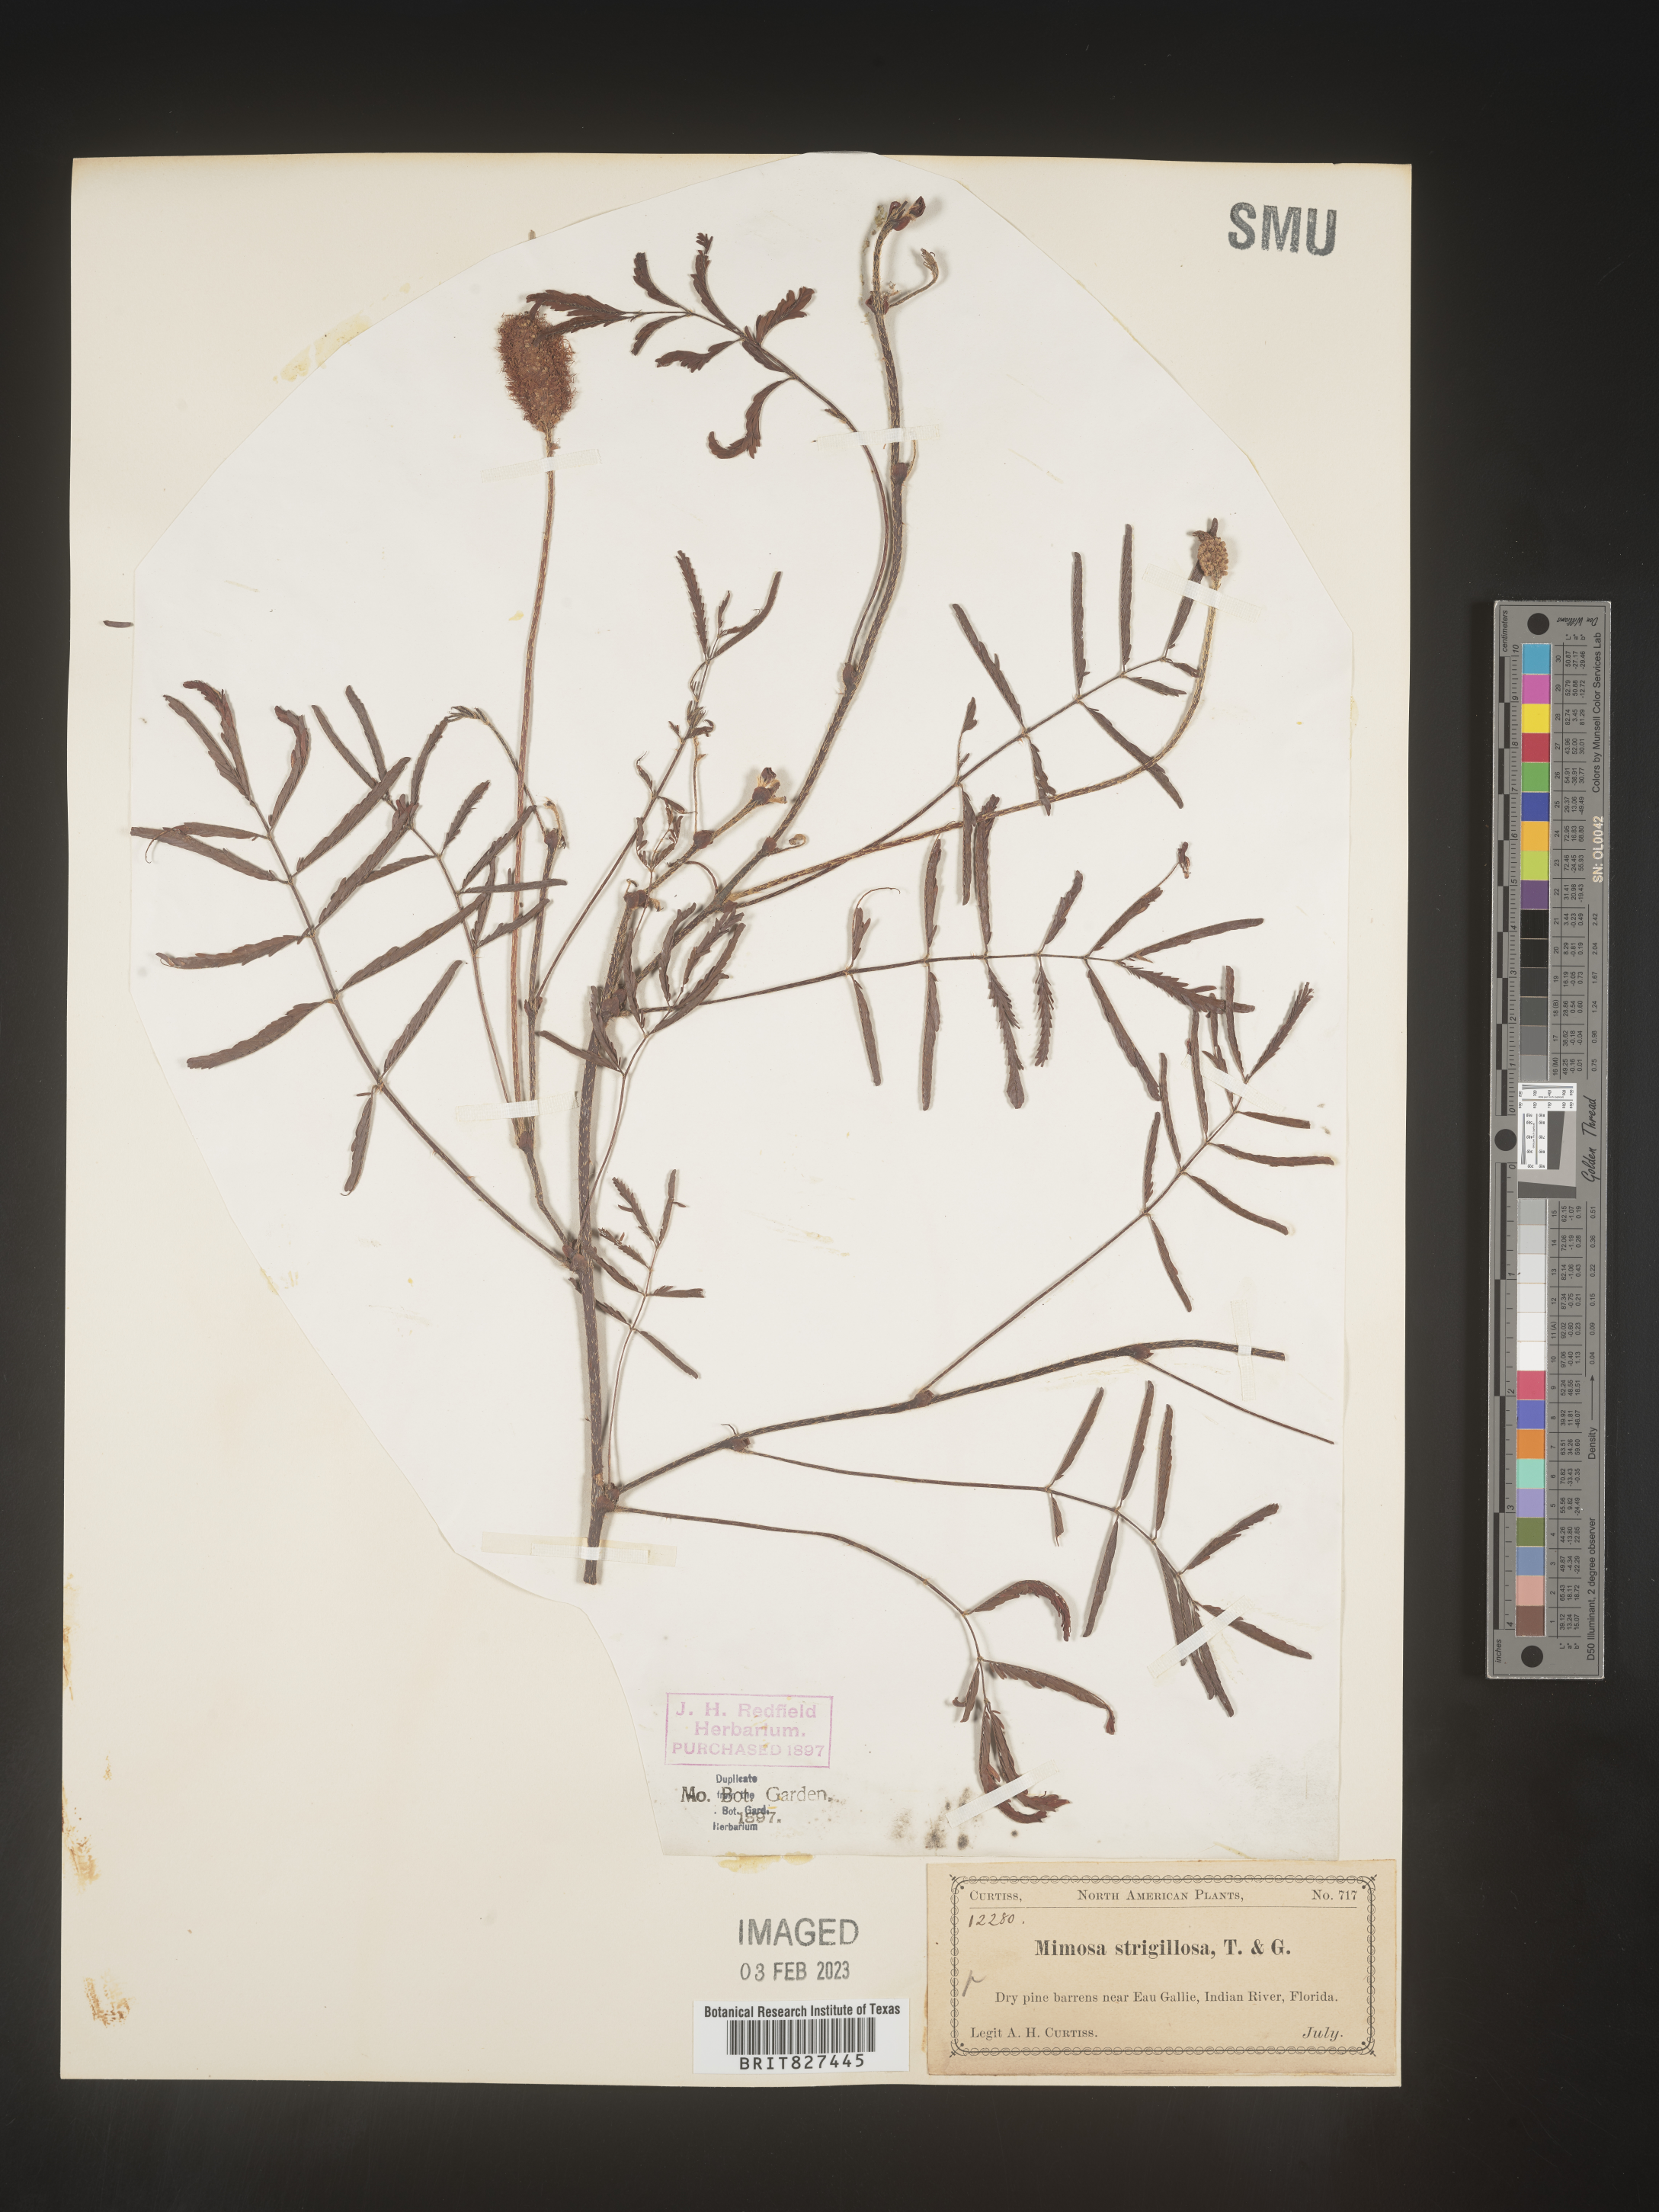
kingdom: Plantae
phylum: Tracheophyta
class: Magnoliopsida
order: Fabales
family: Fabaceae
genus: Mimosa
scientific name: Mimosa strigillosa
